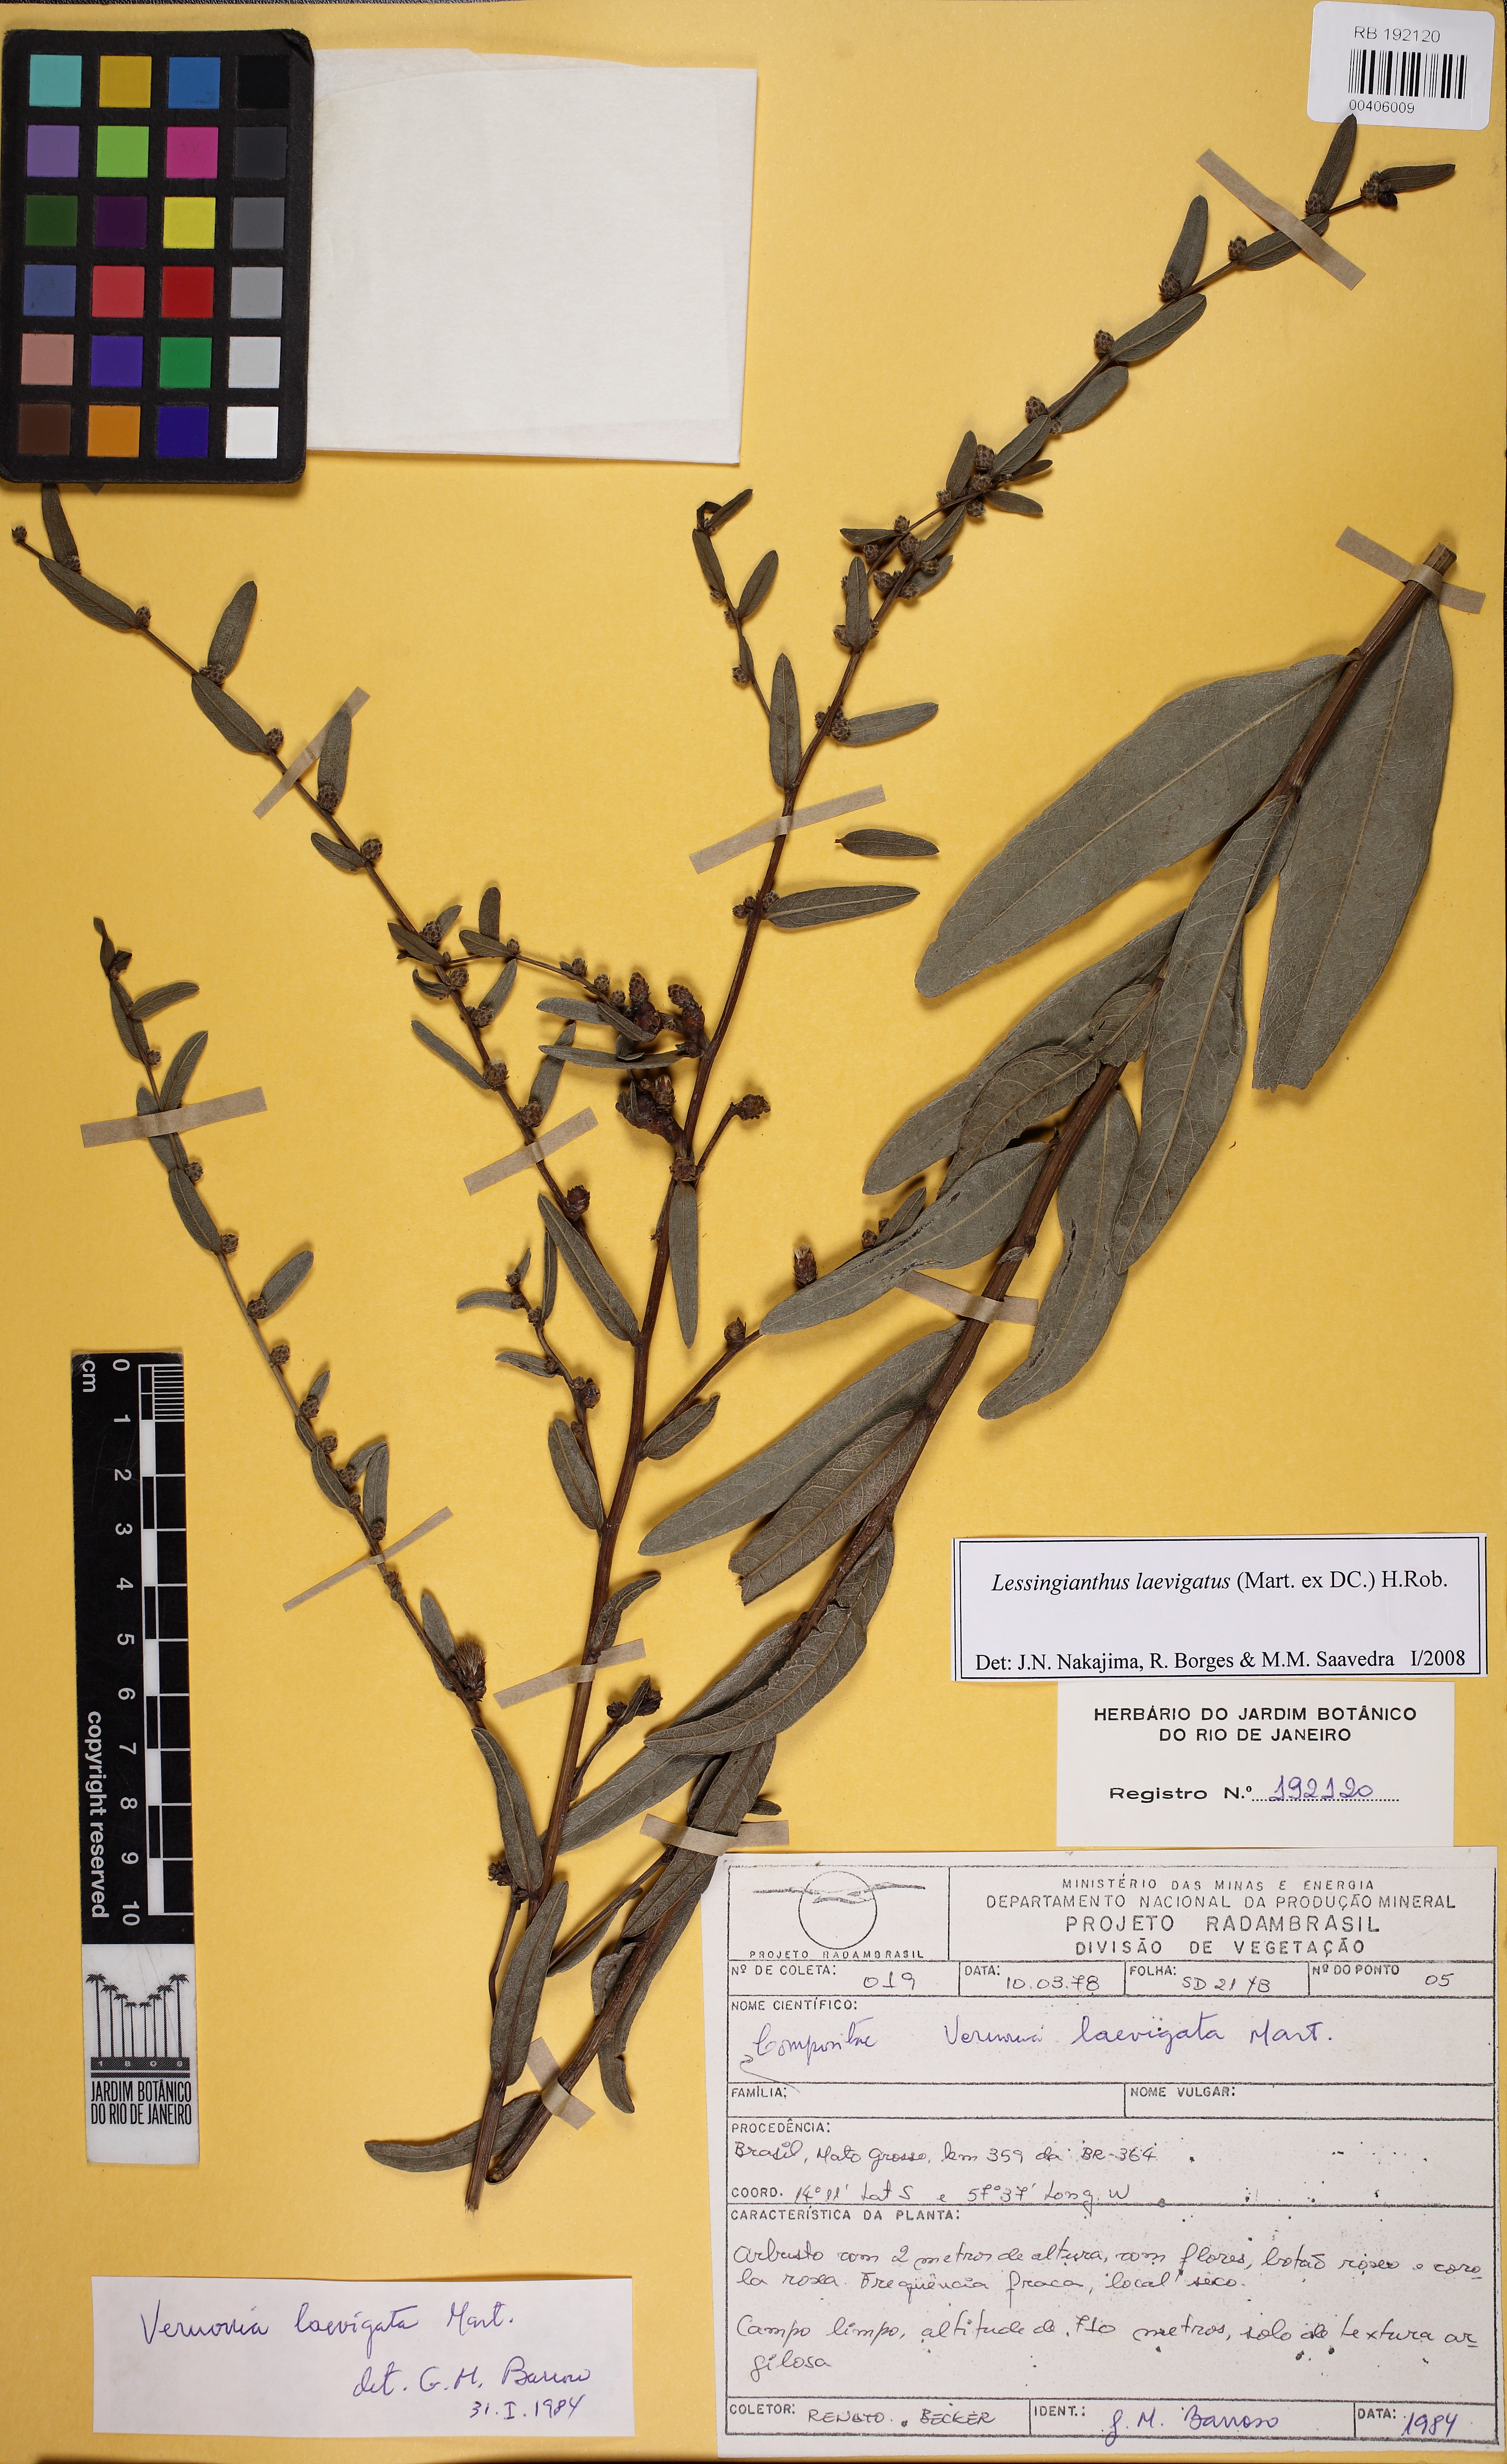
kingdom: Plantae
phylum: Tracheophyta
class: Magnoliopsida
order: Asterales
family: Asteraceae
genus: Lessingianthus
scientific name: Lessingianthus laevigatus
